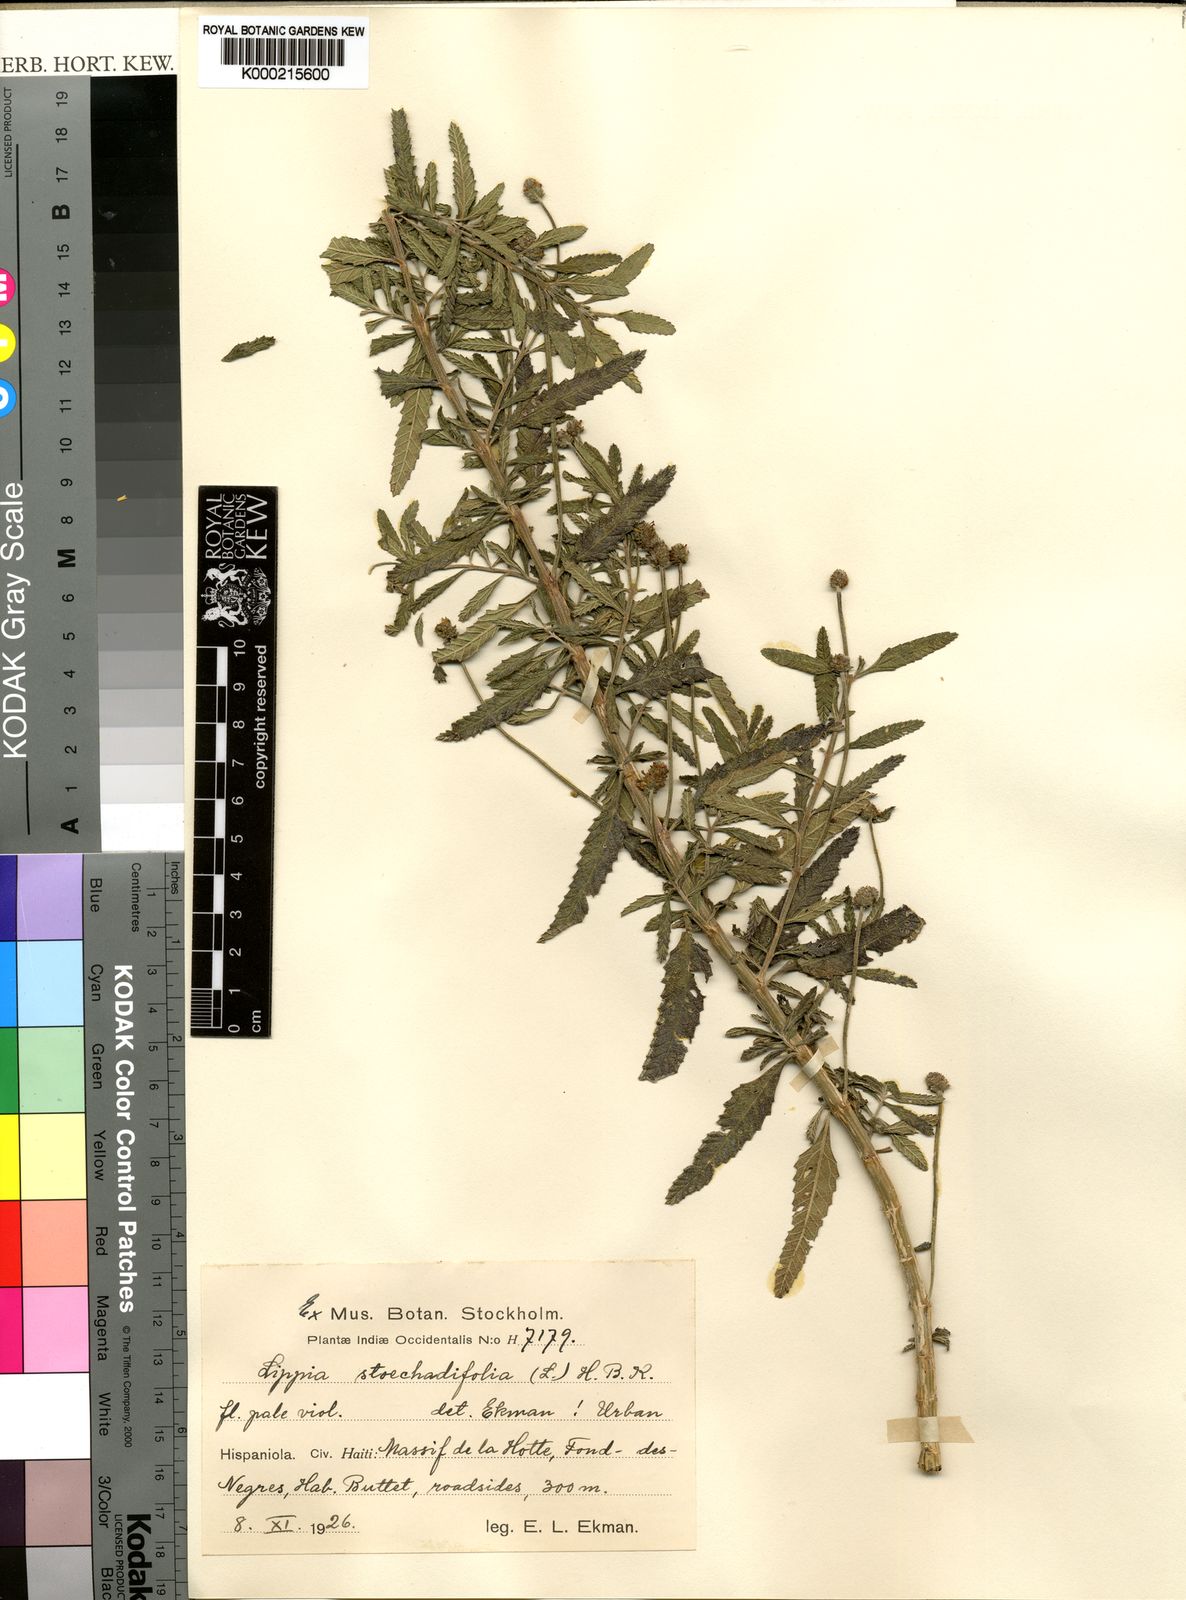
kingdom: Plantae
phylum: Tracheophyta
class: Magnoliopsida
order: Lamiales
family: Verbenaceae
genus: Phyla
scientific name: Phyla
